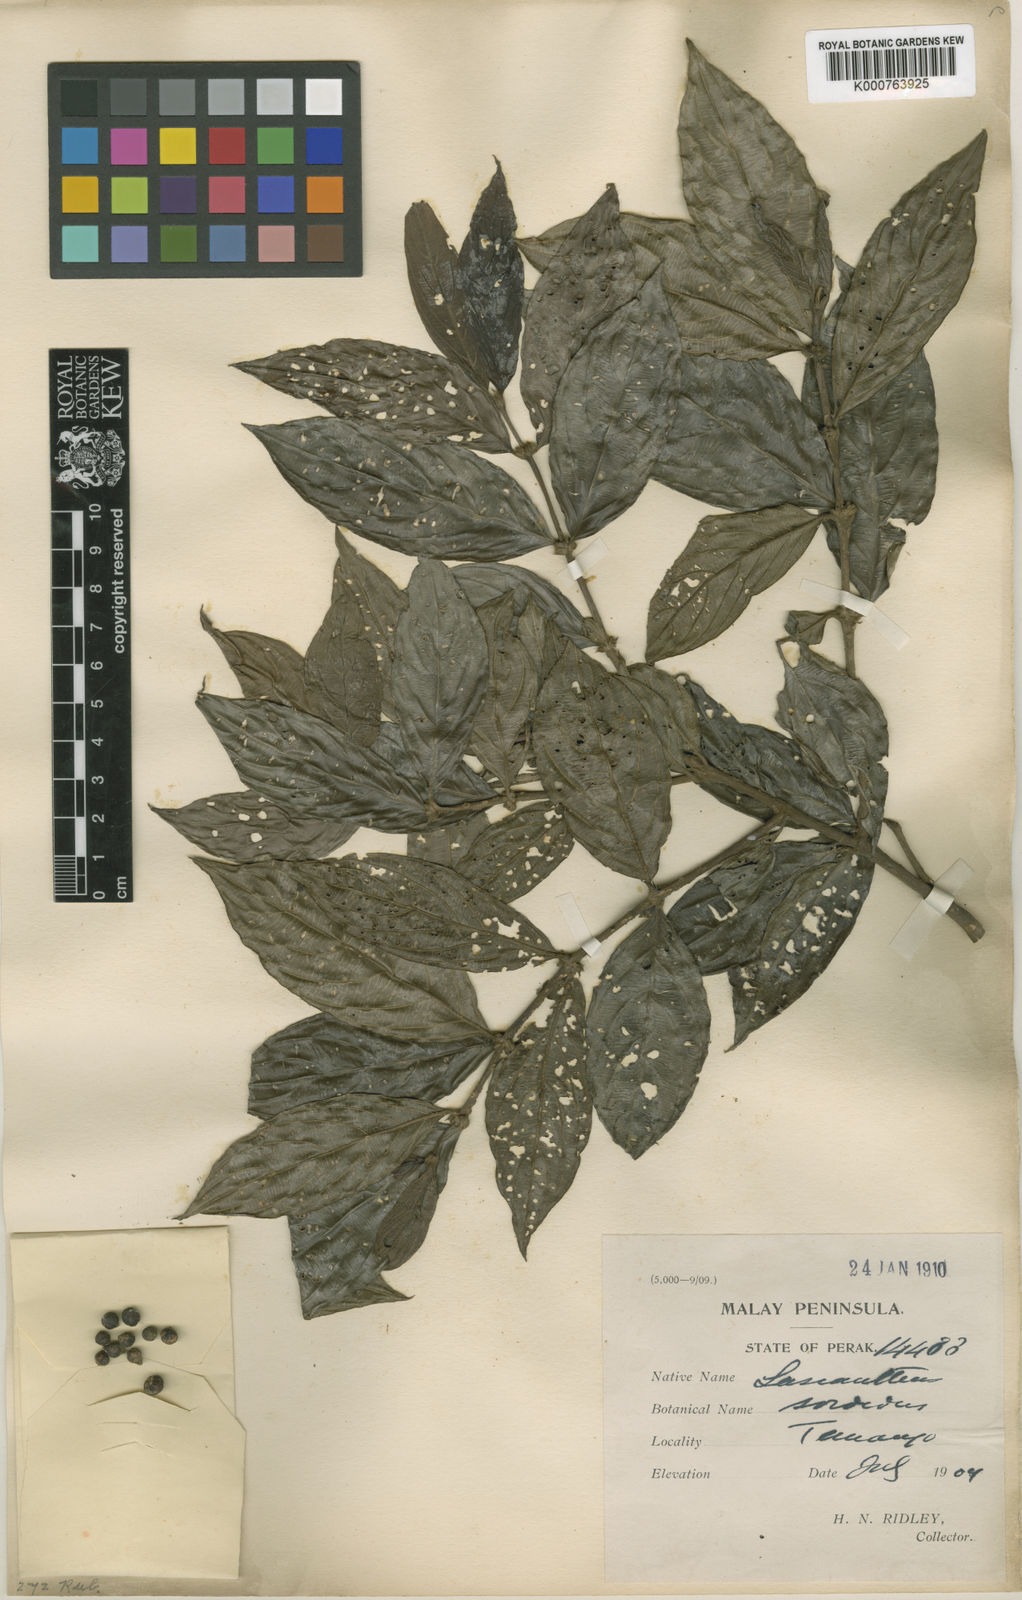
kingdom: Plantae
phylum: Tracheophyta
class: Magnoliopsida
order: Gentianales
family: Rubiaceae
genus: Lasianthus
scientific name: Lasianthus ellipticus
